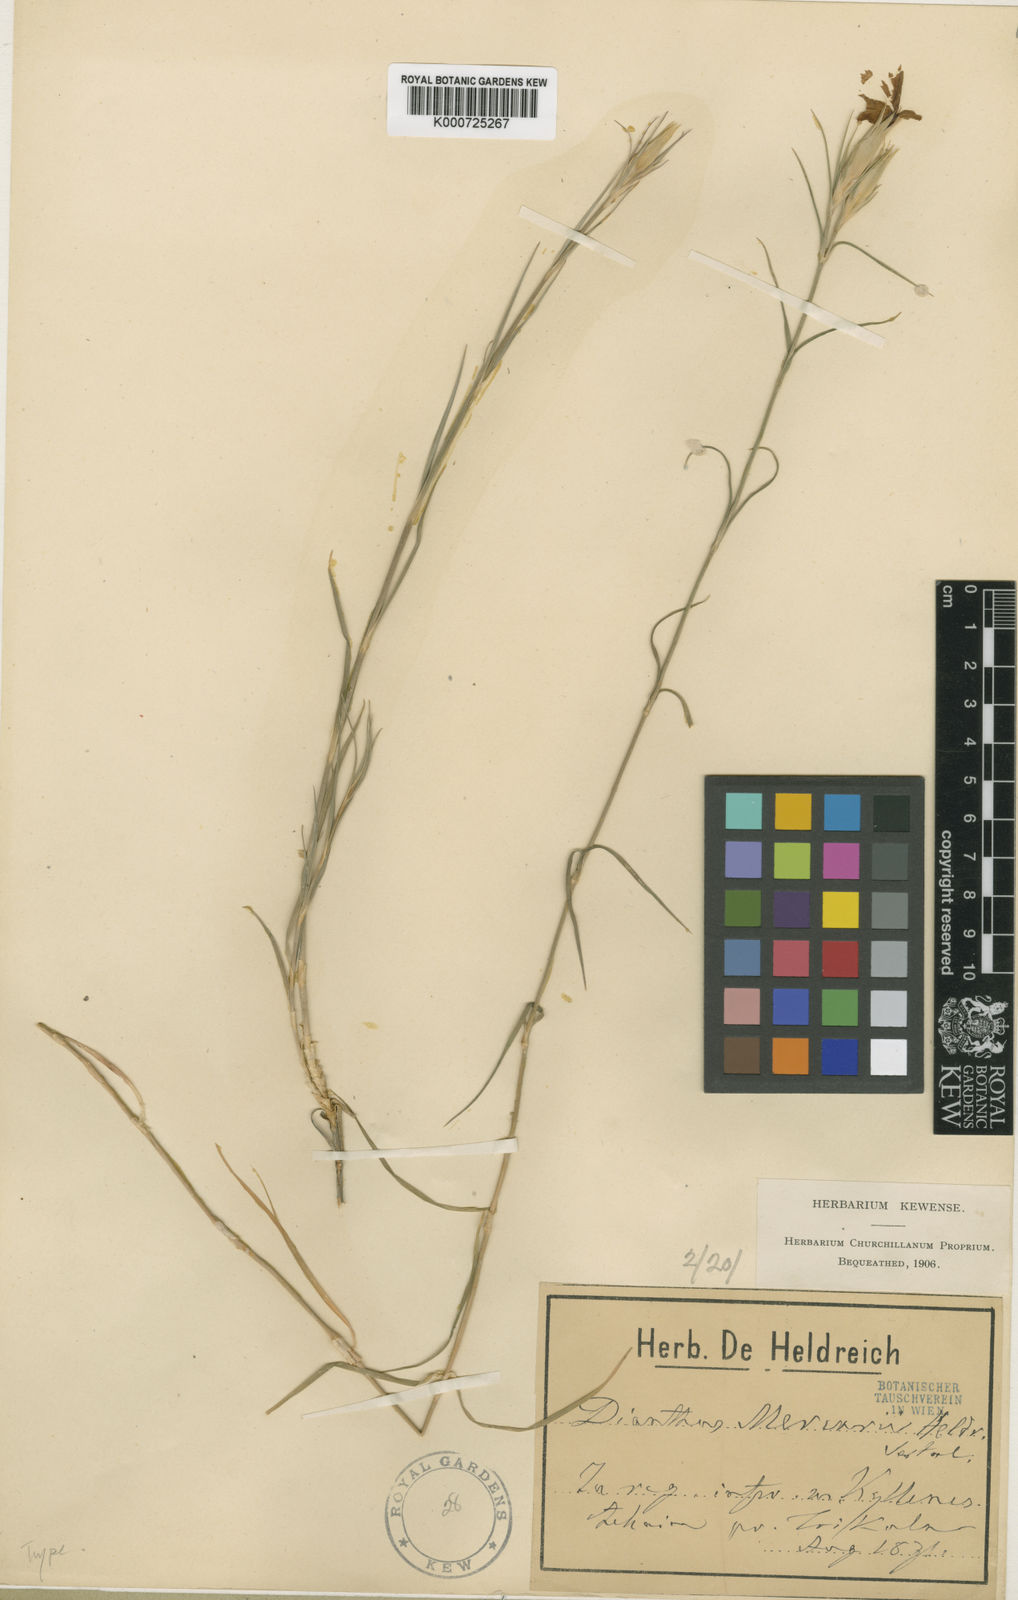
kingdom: Plantae
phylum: Tracheophyta
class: Magnoliopsida
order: Caryophyllales
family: Caryophyllaceae
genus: Dianthus
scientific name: Dianthus mercurii
